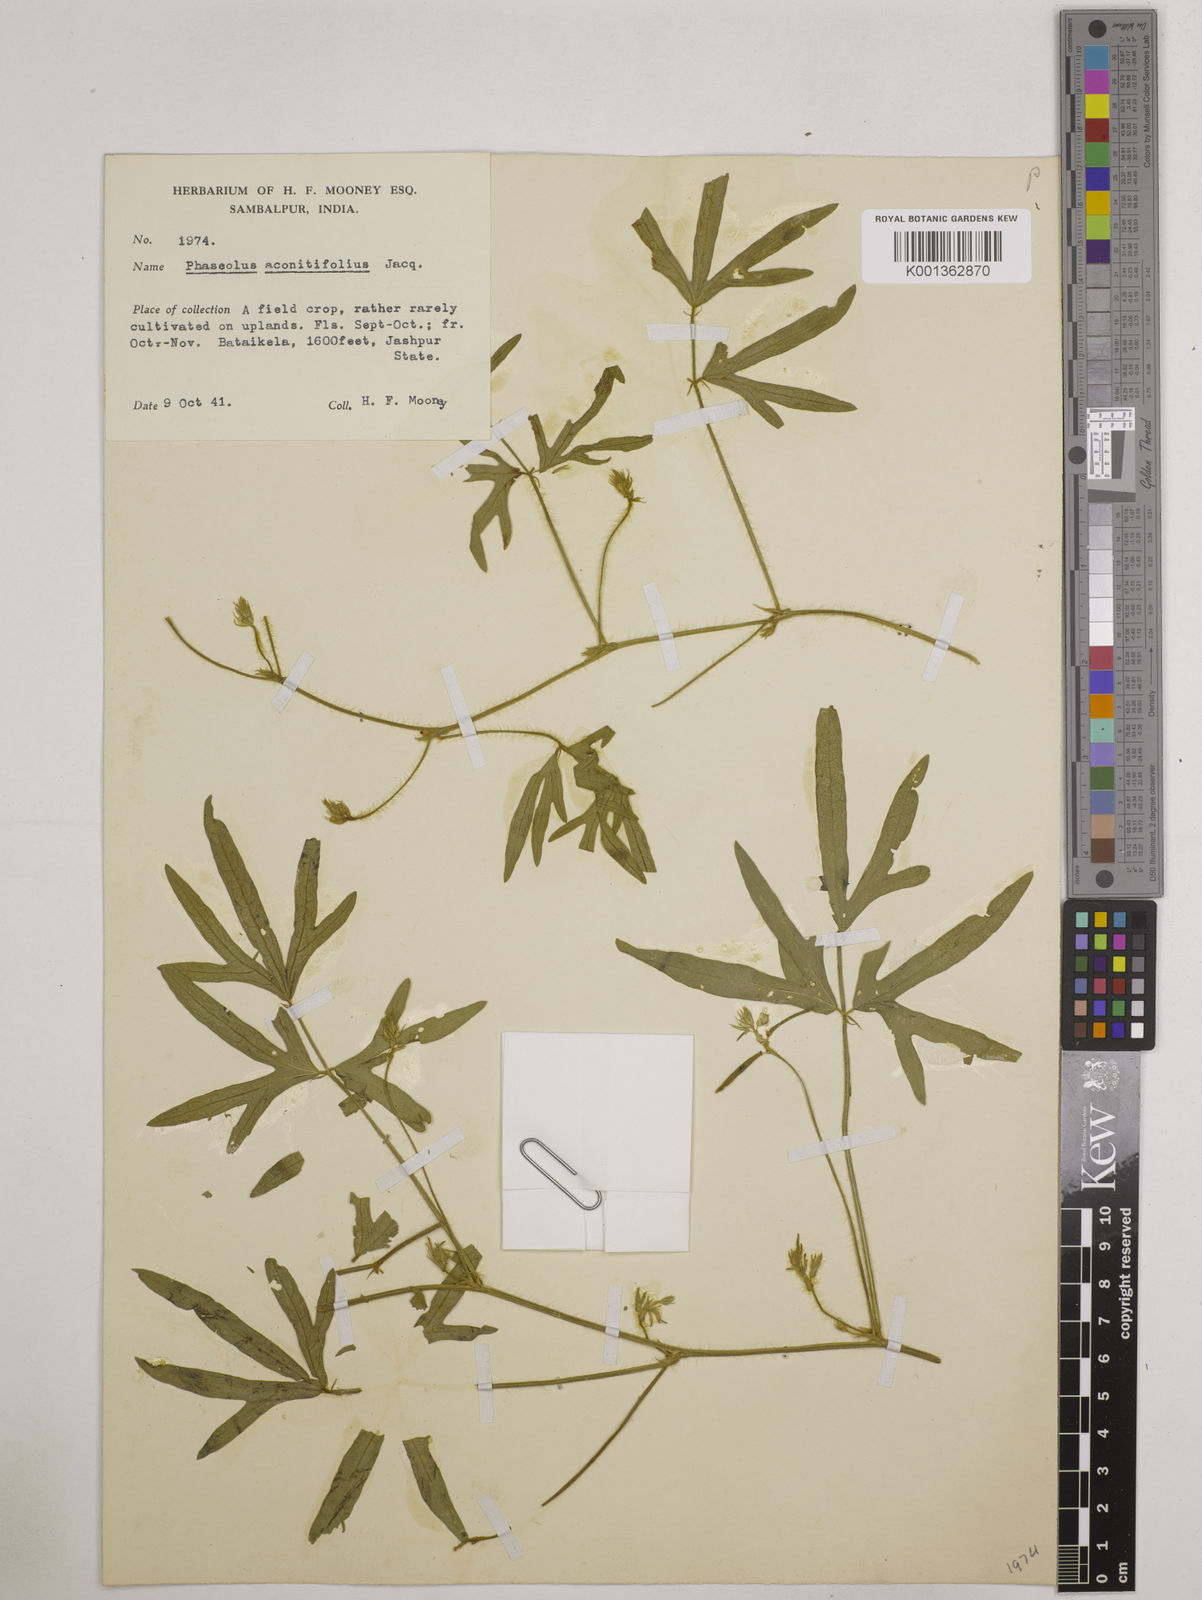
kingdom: Plantae
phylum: Tracheophyta
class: Magnoliopsida
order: Fabales
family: Fabaceae
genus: Vigna
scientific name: Vigna aconitifolia
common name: Dew bean
